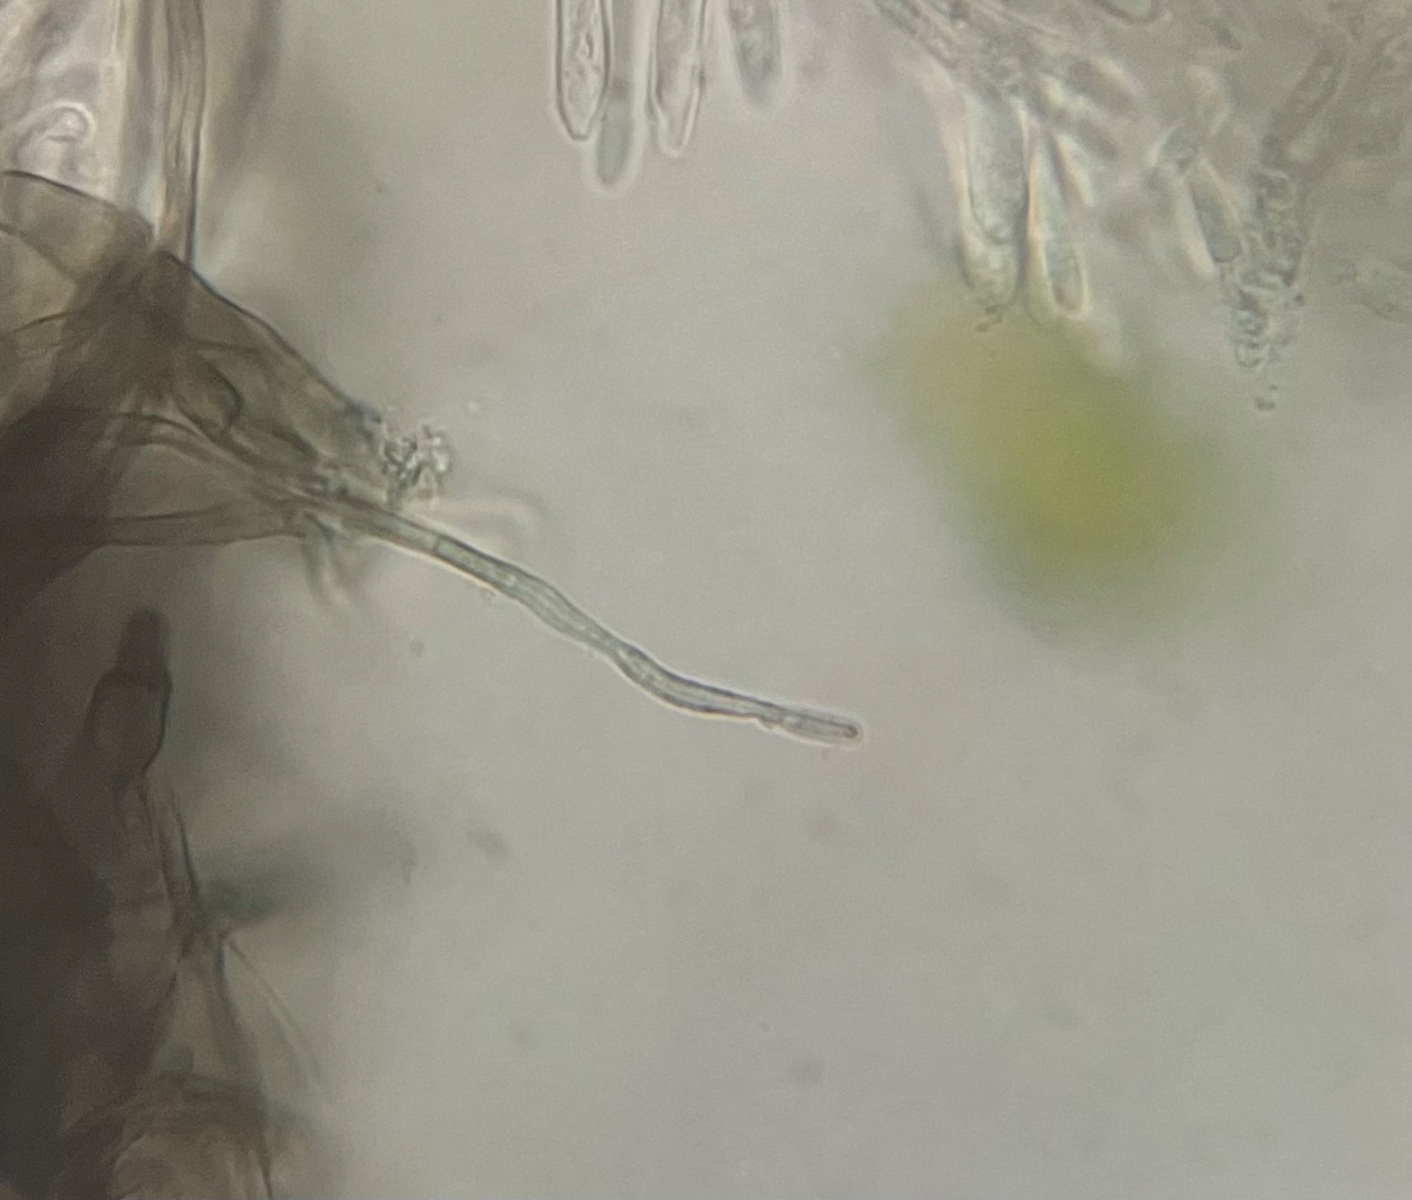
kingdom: Fungi
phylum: Ascomycota
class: Leotiomycetes
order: Helotiales
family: Dermateaceae
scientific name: Dermateaceae
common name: gråskivefamilien
